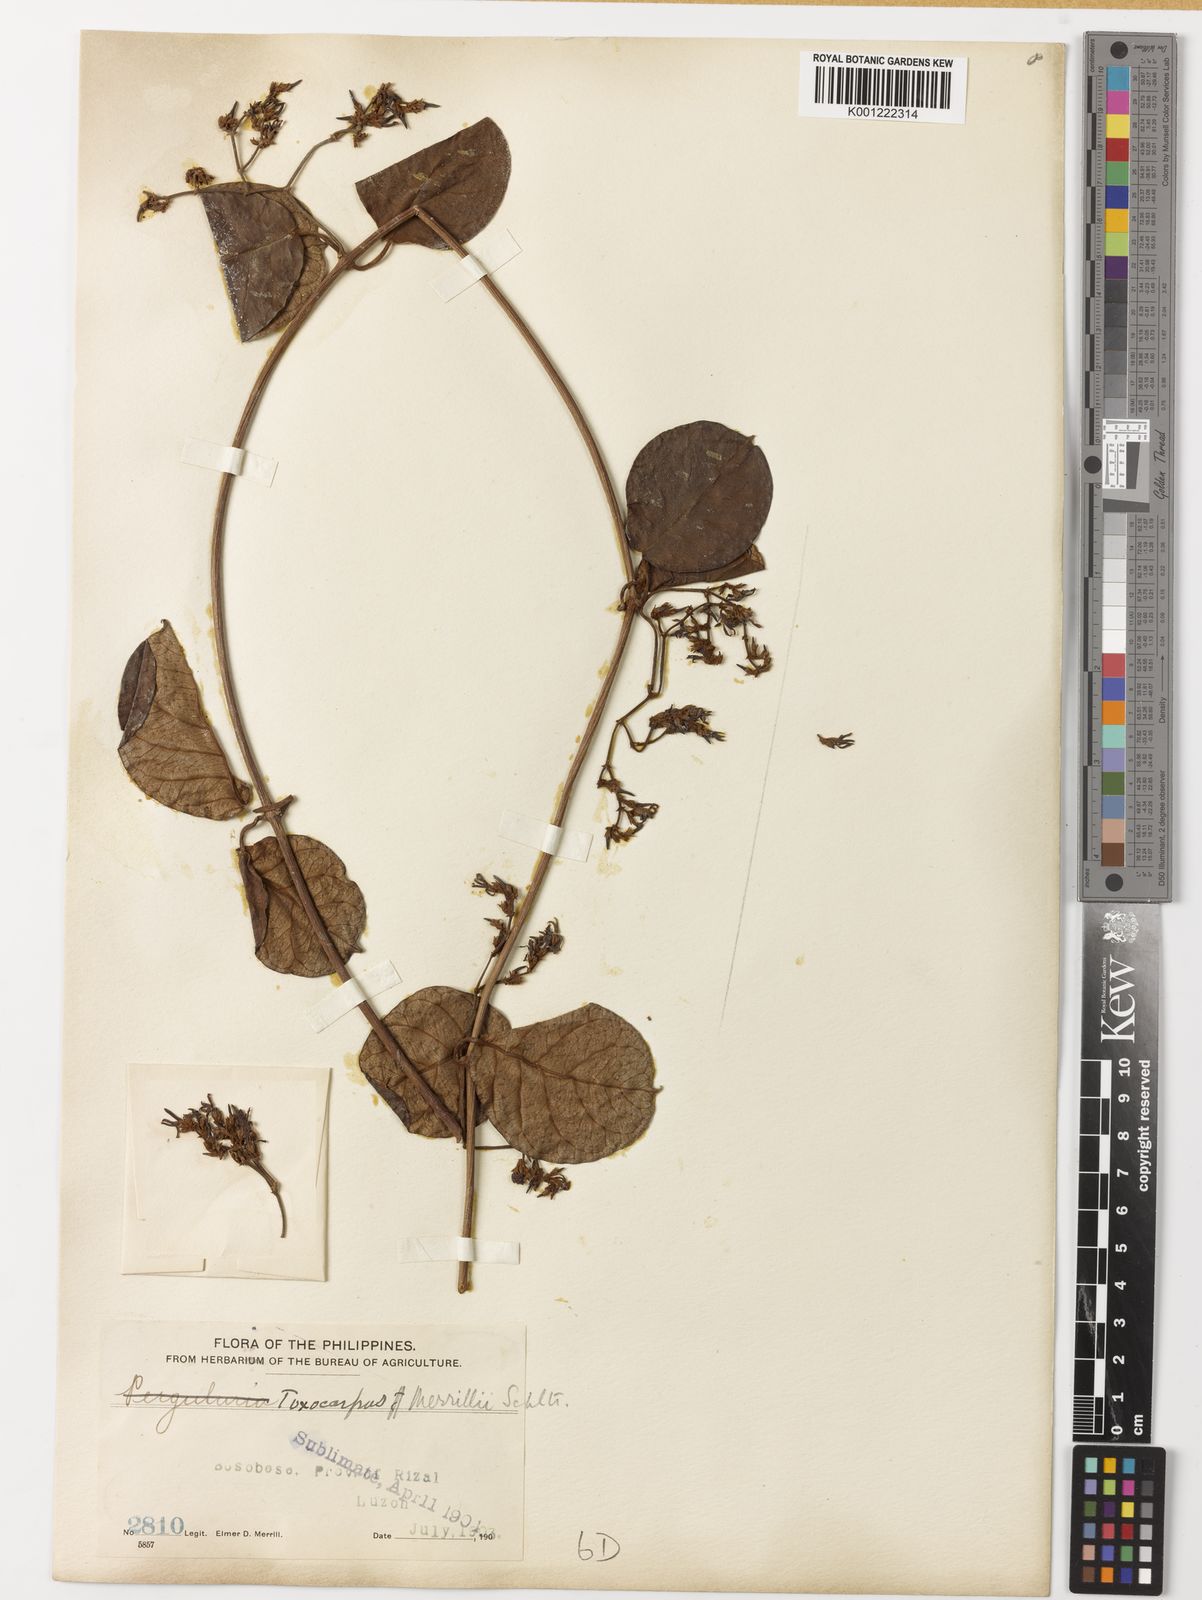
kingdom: Plantae
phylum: Tracheophyta
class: Magnoliopsida
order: Gentianales
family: Apocynaceae
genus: Toxocarpus
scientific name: Toxocarpus merrillii
